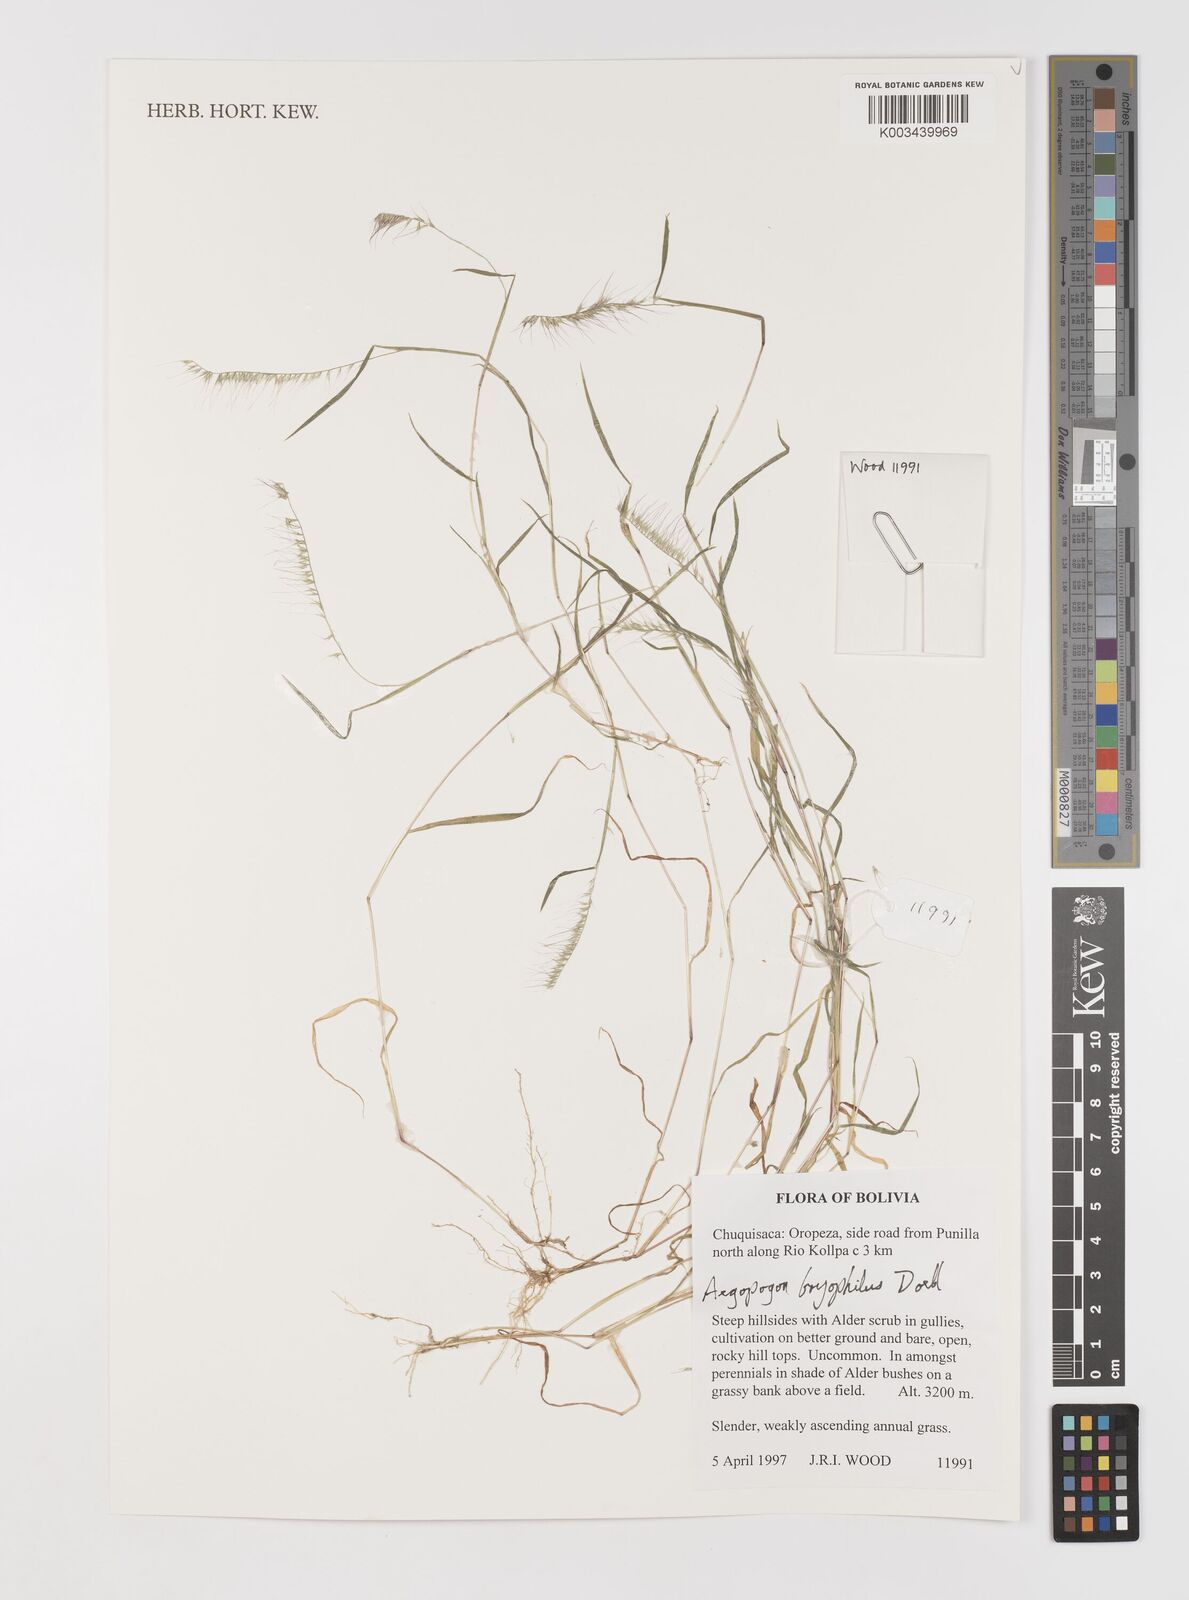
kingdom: Plantae
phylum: Tracheophyta
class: Liliopsida
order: Poales
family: Poaceae
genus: Muhlenbergia
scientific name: Muhlenbergia bryophilus
